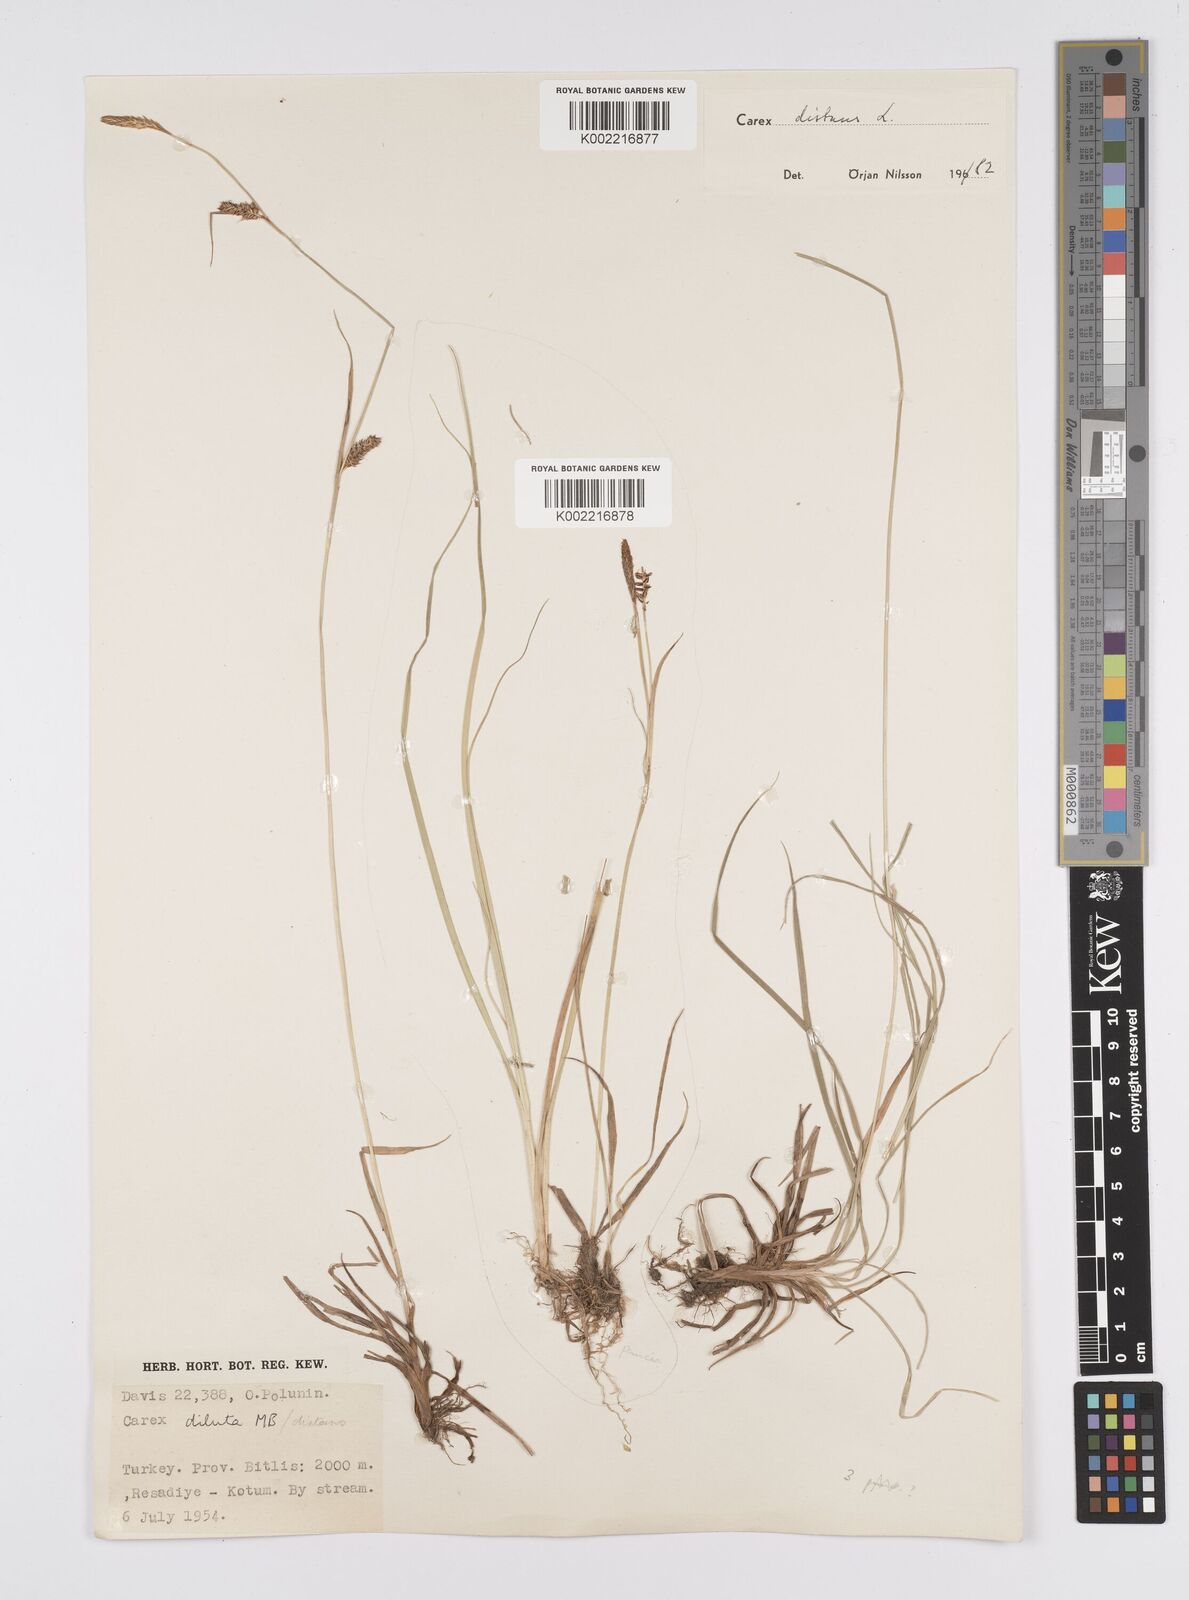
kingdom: Plantae
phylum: Tracheophyta
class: Liliopsida
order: Poales
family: Cyperaceae
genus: Carex
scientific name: Carex distans
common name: Distant sedge
